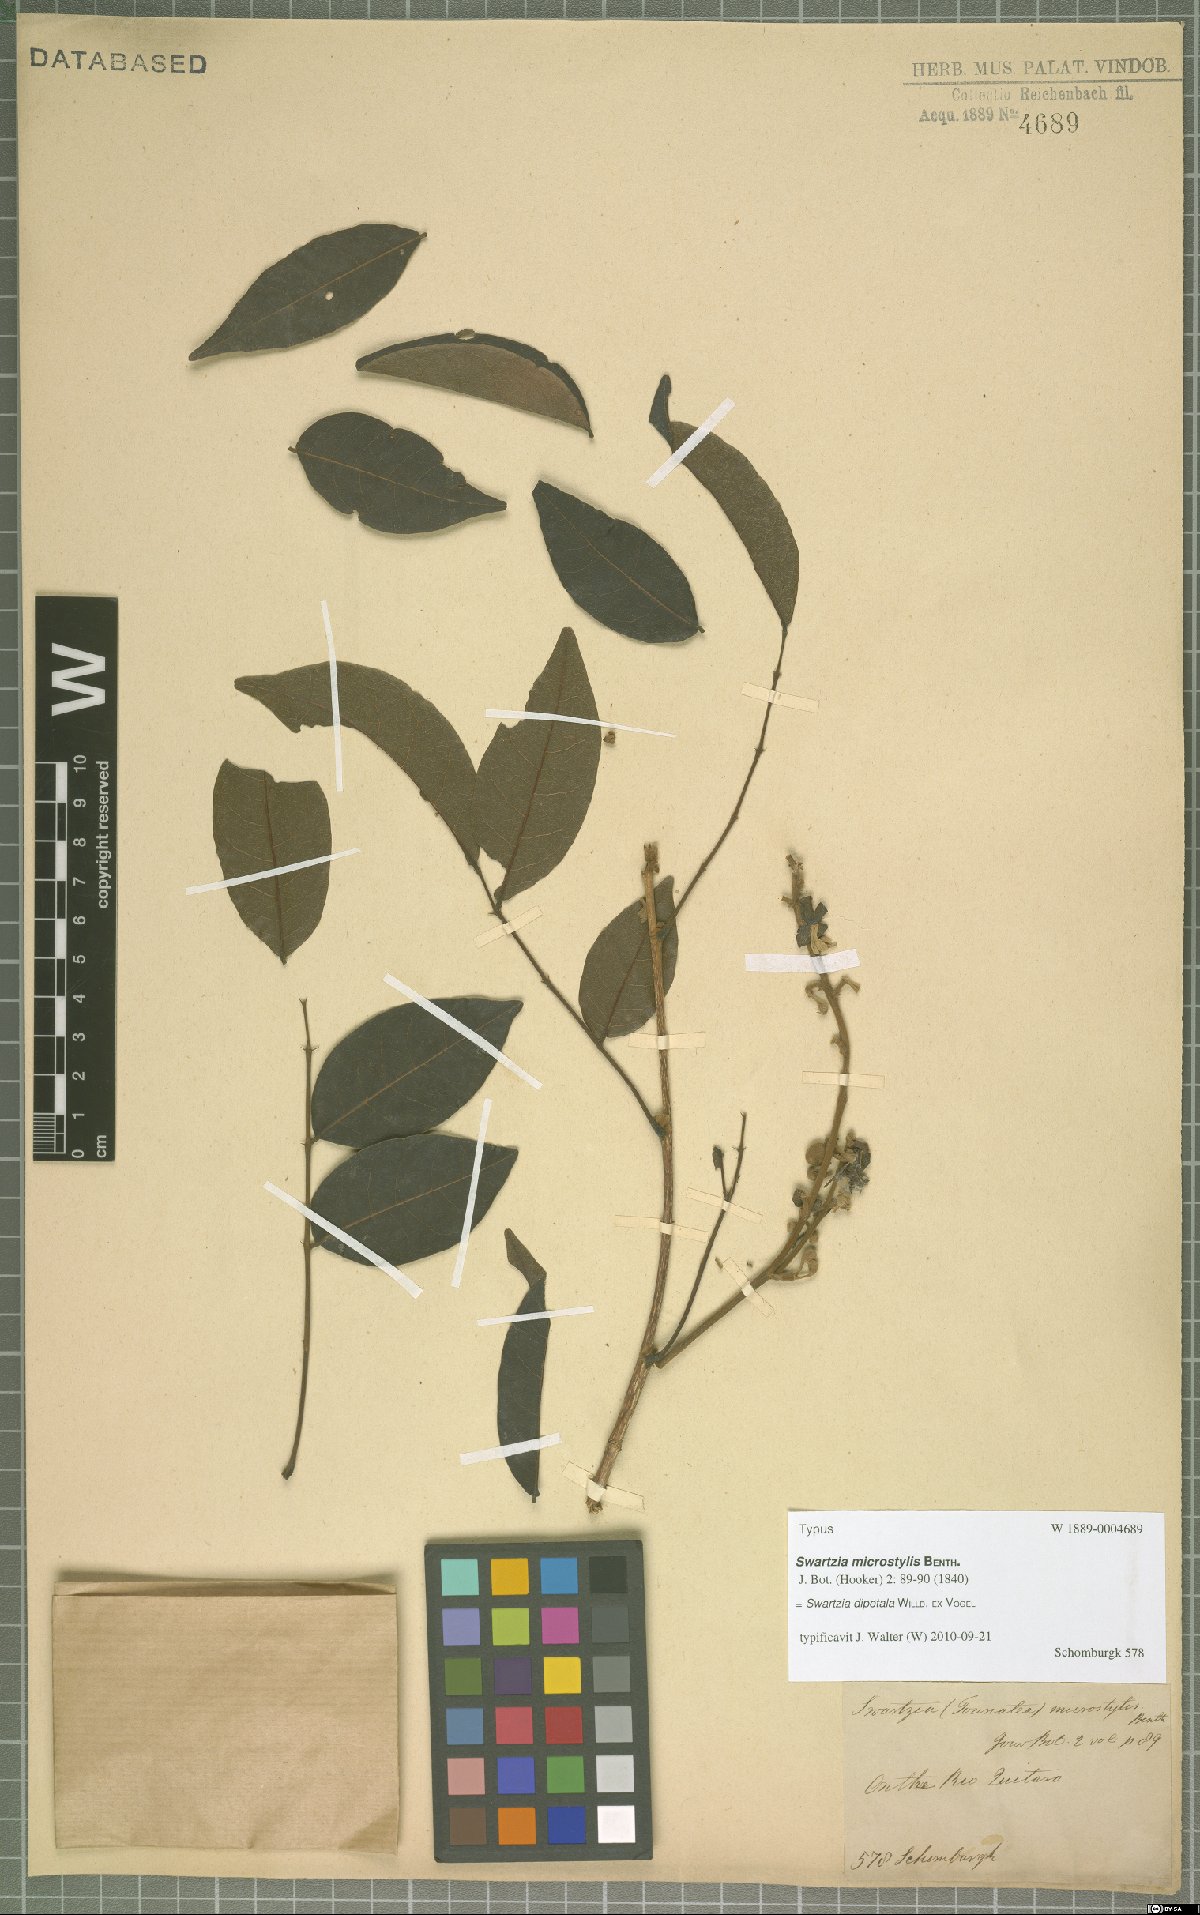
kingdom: Plantae
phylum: Tracheophyta
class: Magnoliopsida
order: Fabales
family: Fabaceae
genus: Swartzia
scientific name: Swartzia microstylis
